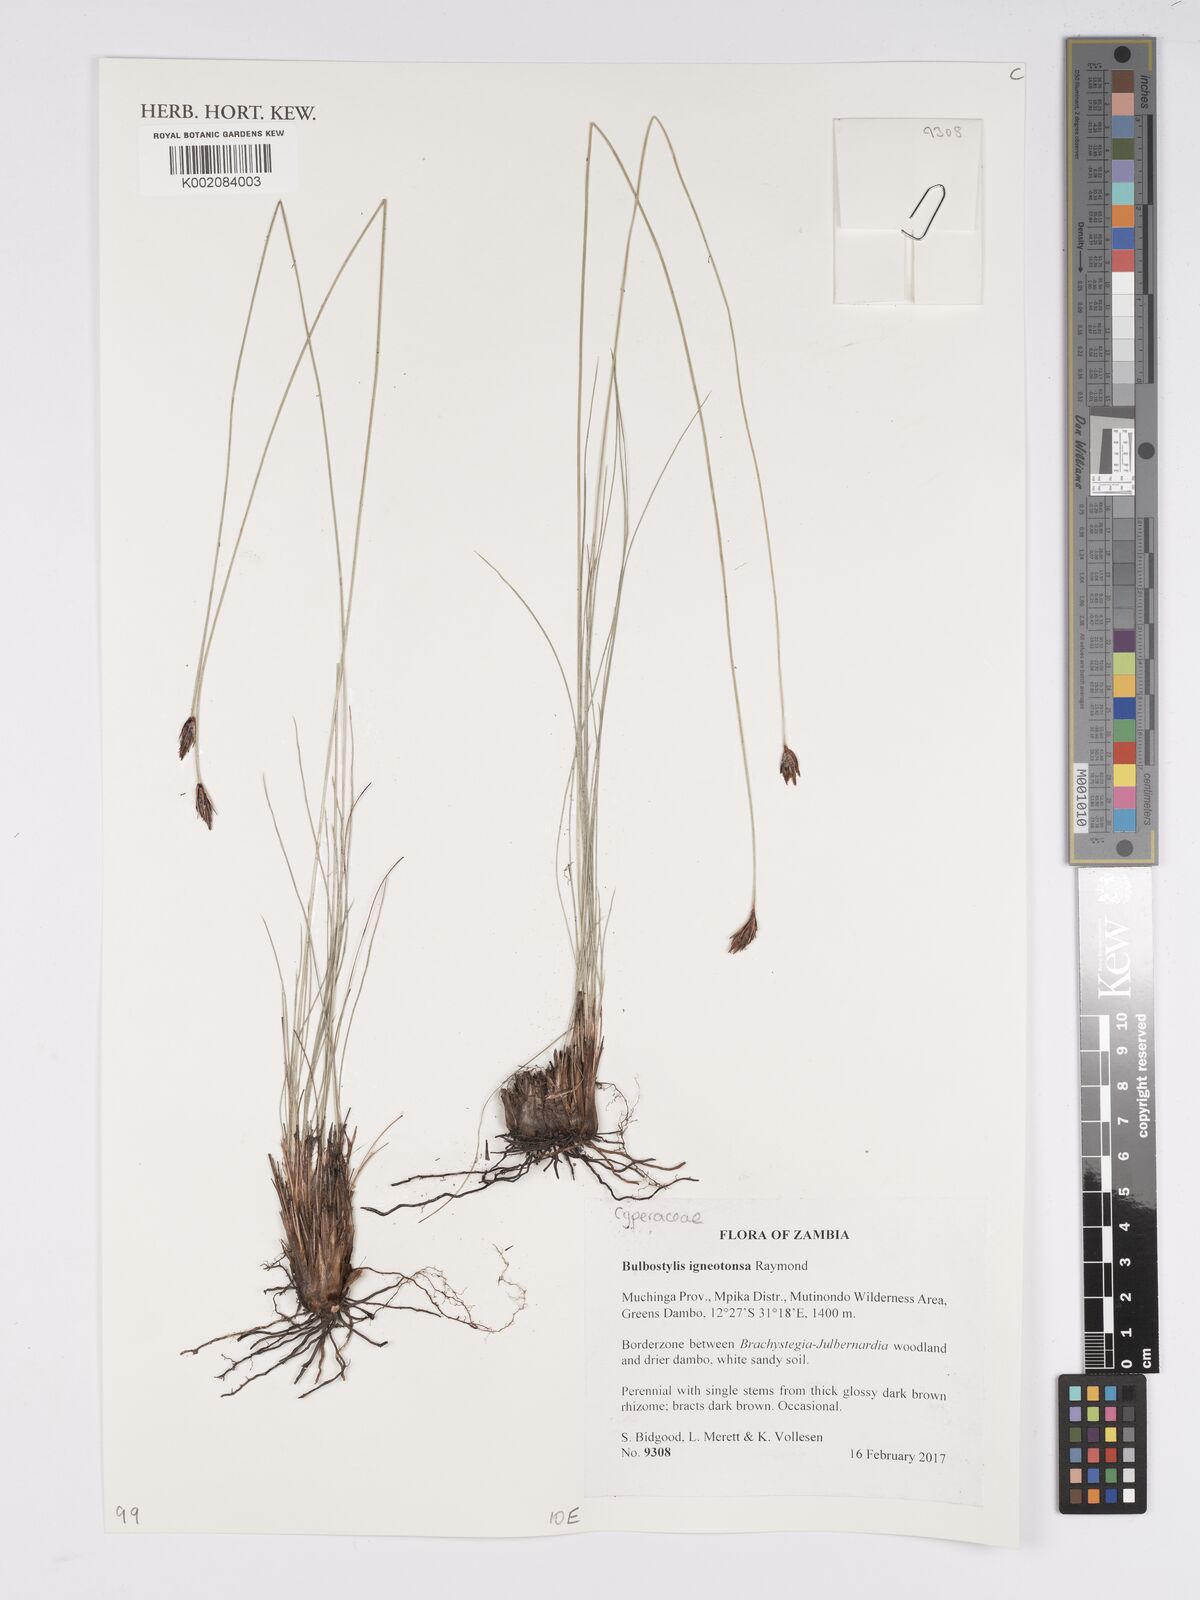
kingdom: Plantae
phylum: Tracheophyta
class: Liliopsida
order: Poales
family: Cyperaceae
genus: Bulbostylis
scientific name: Bulbostylis igneotonsa
